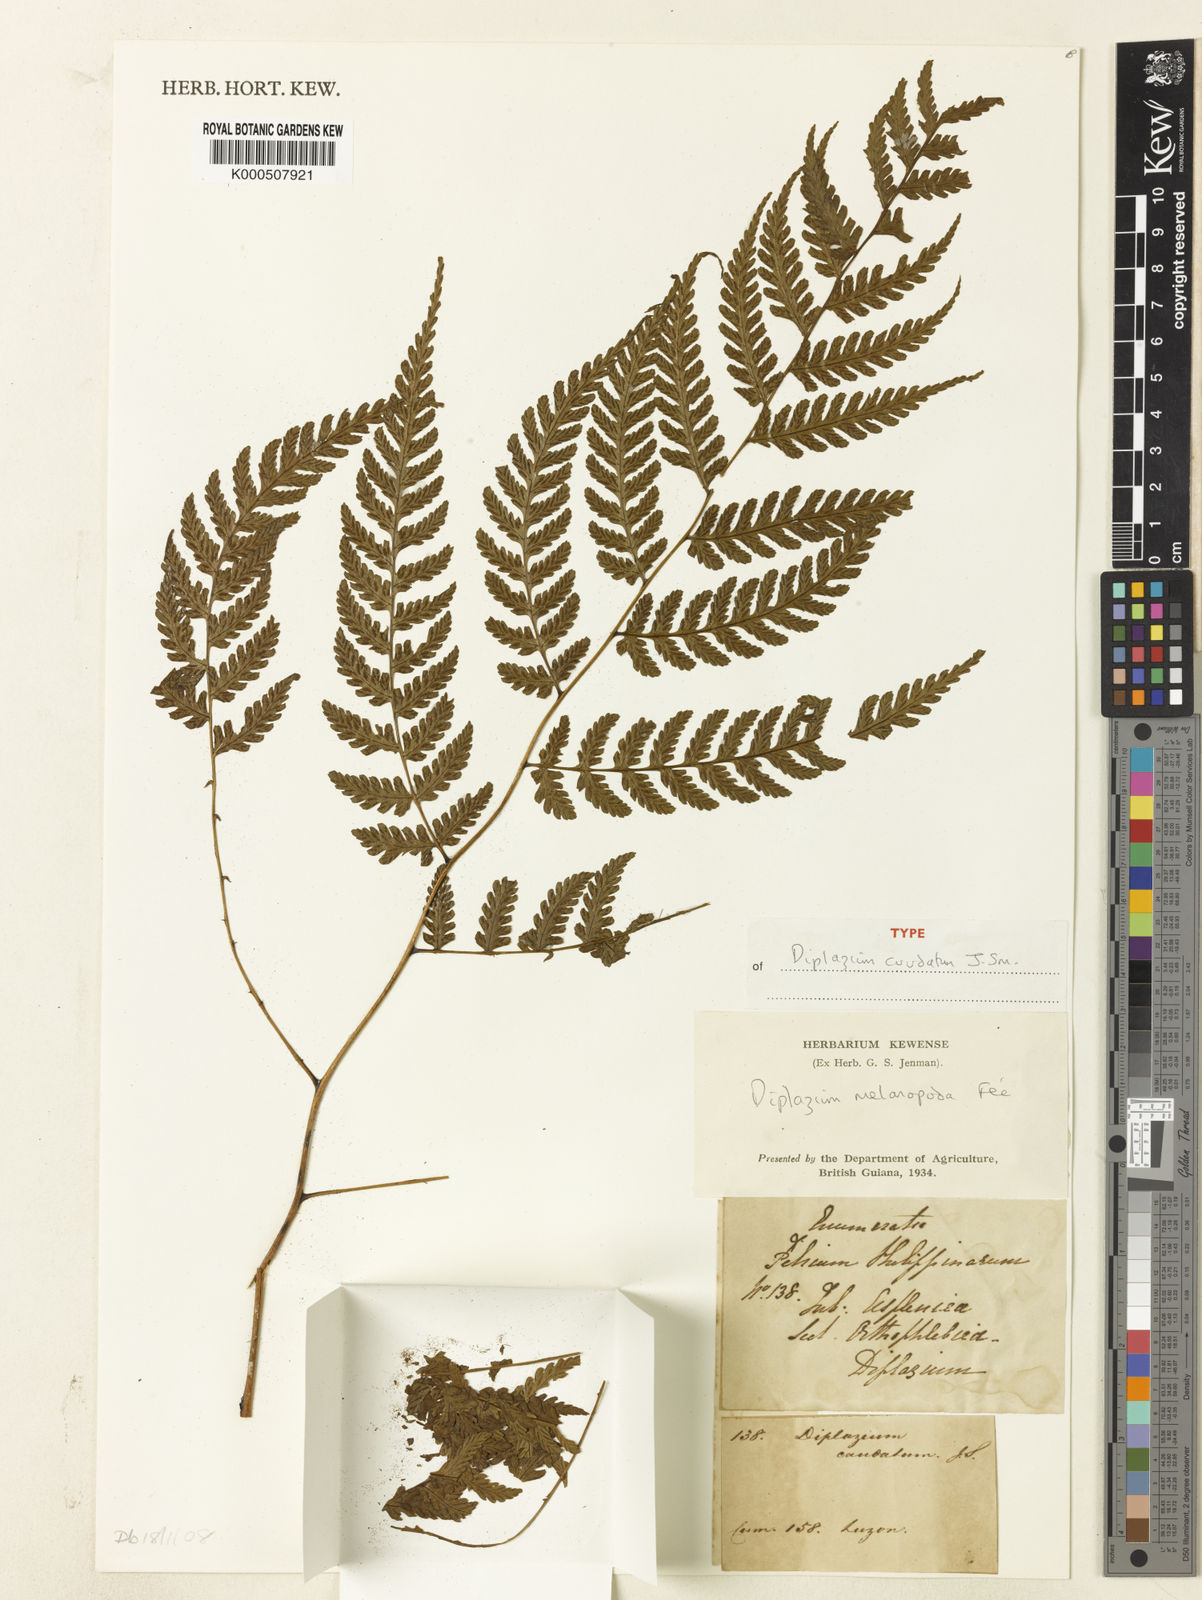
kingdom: Plantae
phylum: Tracheophyta
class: Polypodiopsida
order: Polypodiales
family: Athyriaceae
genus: Diplazium
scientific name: Diplazium
